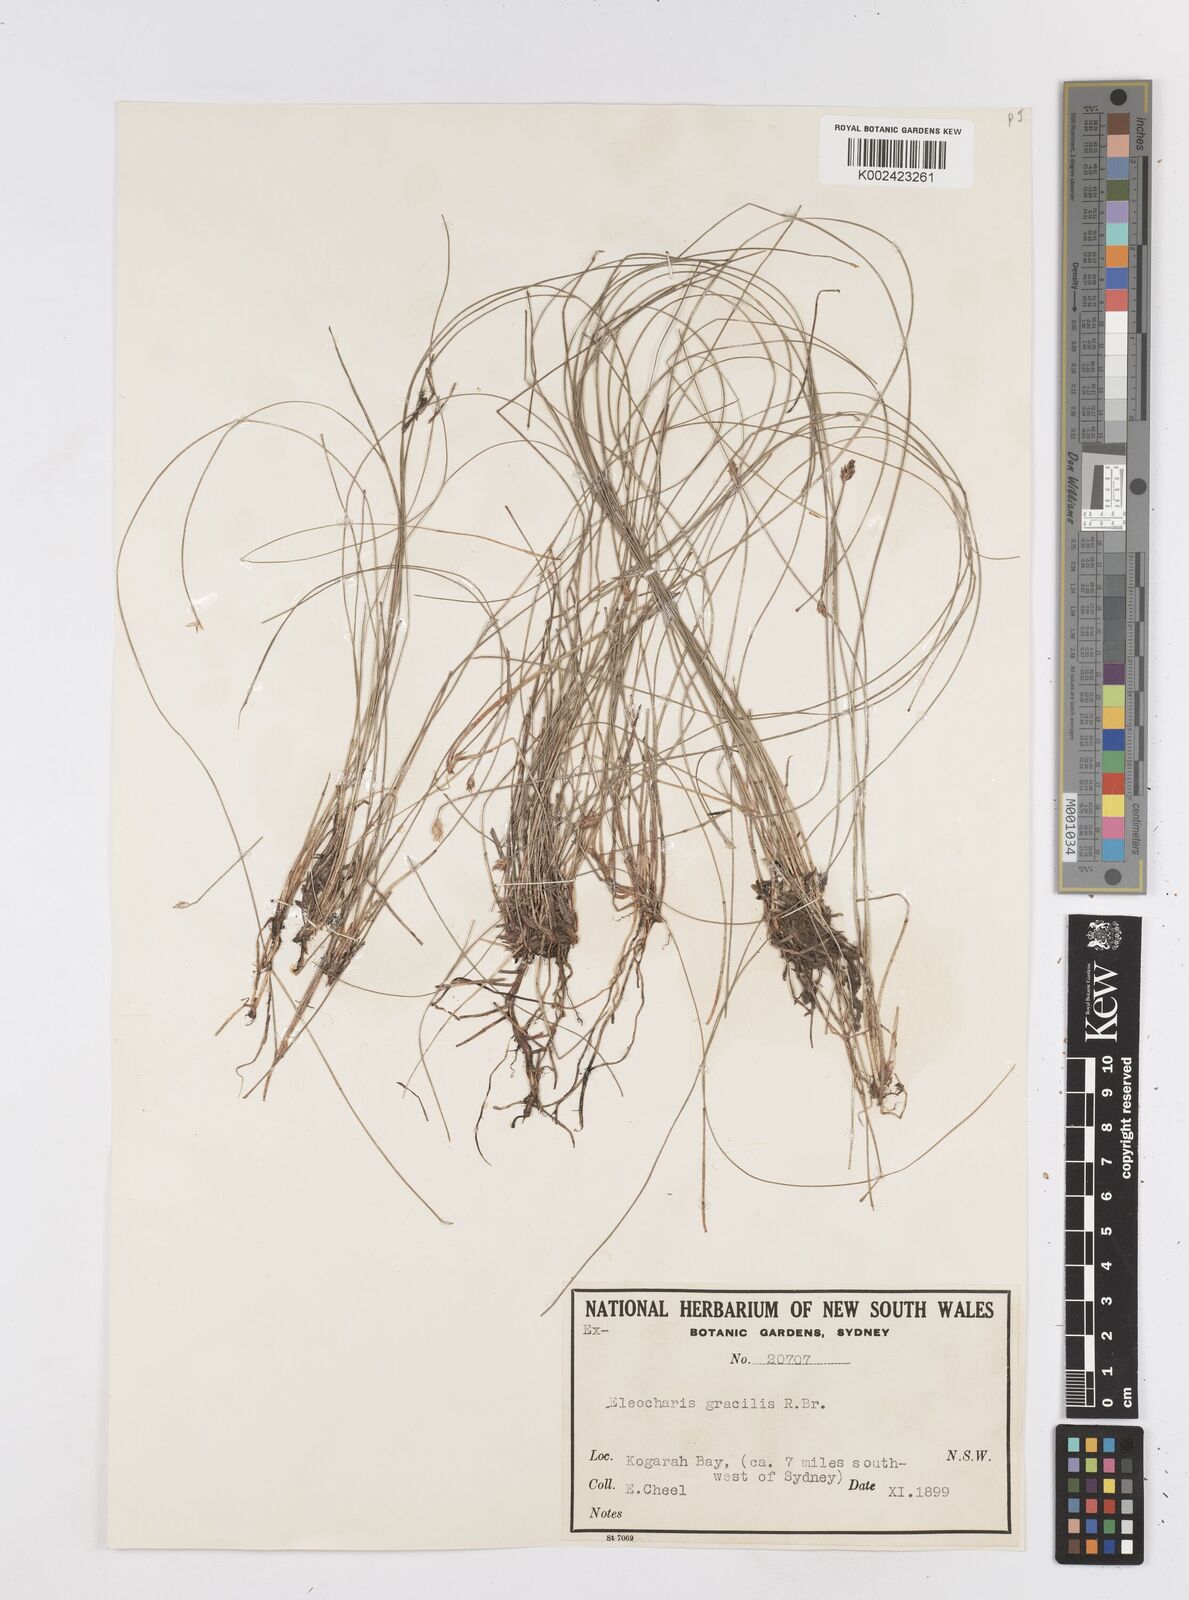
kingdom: Plantae
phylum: Tracheophyta
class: Liliopsida
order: Poales
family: Cyperaceae
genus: Eleocharis
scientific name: Eleocharis multicaulis
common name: Many-stalked spike-rush
